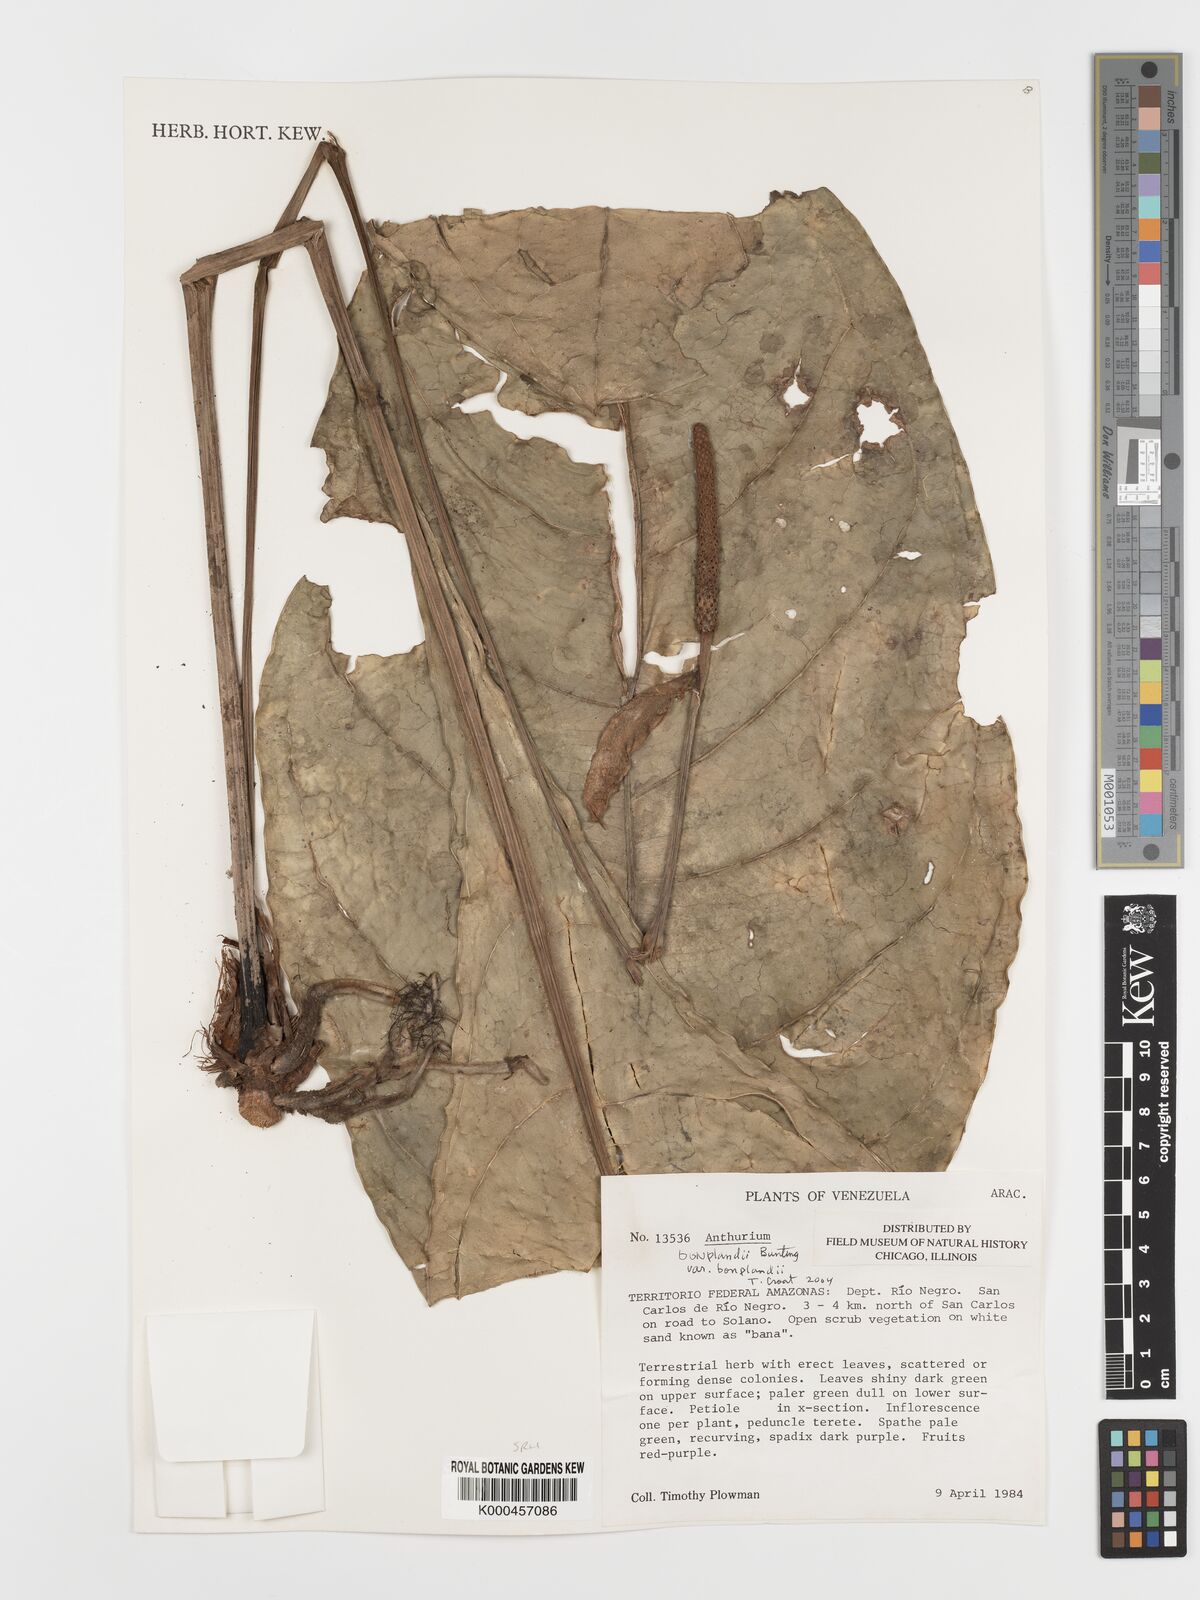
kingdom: Plantae
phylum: Tracheophyta
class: Liliopsida
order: Alismatales
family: Araceae
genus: Anthurium
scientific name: Anthurium bonplandii
